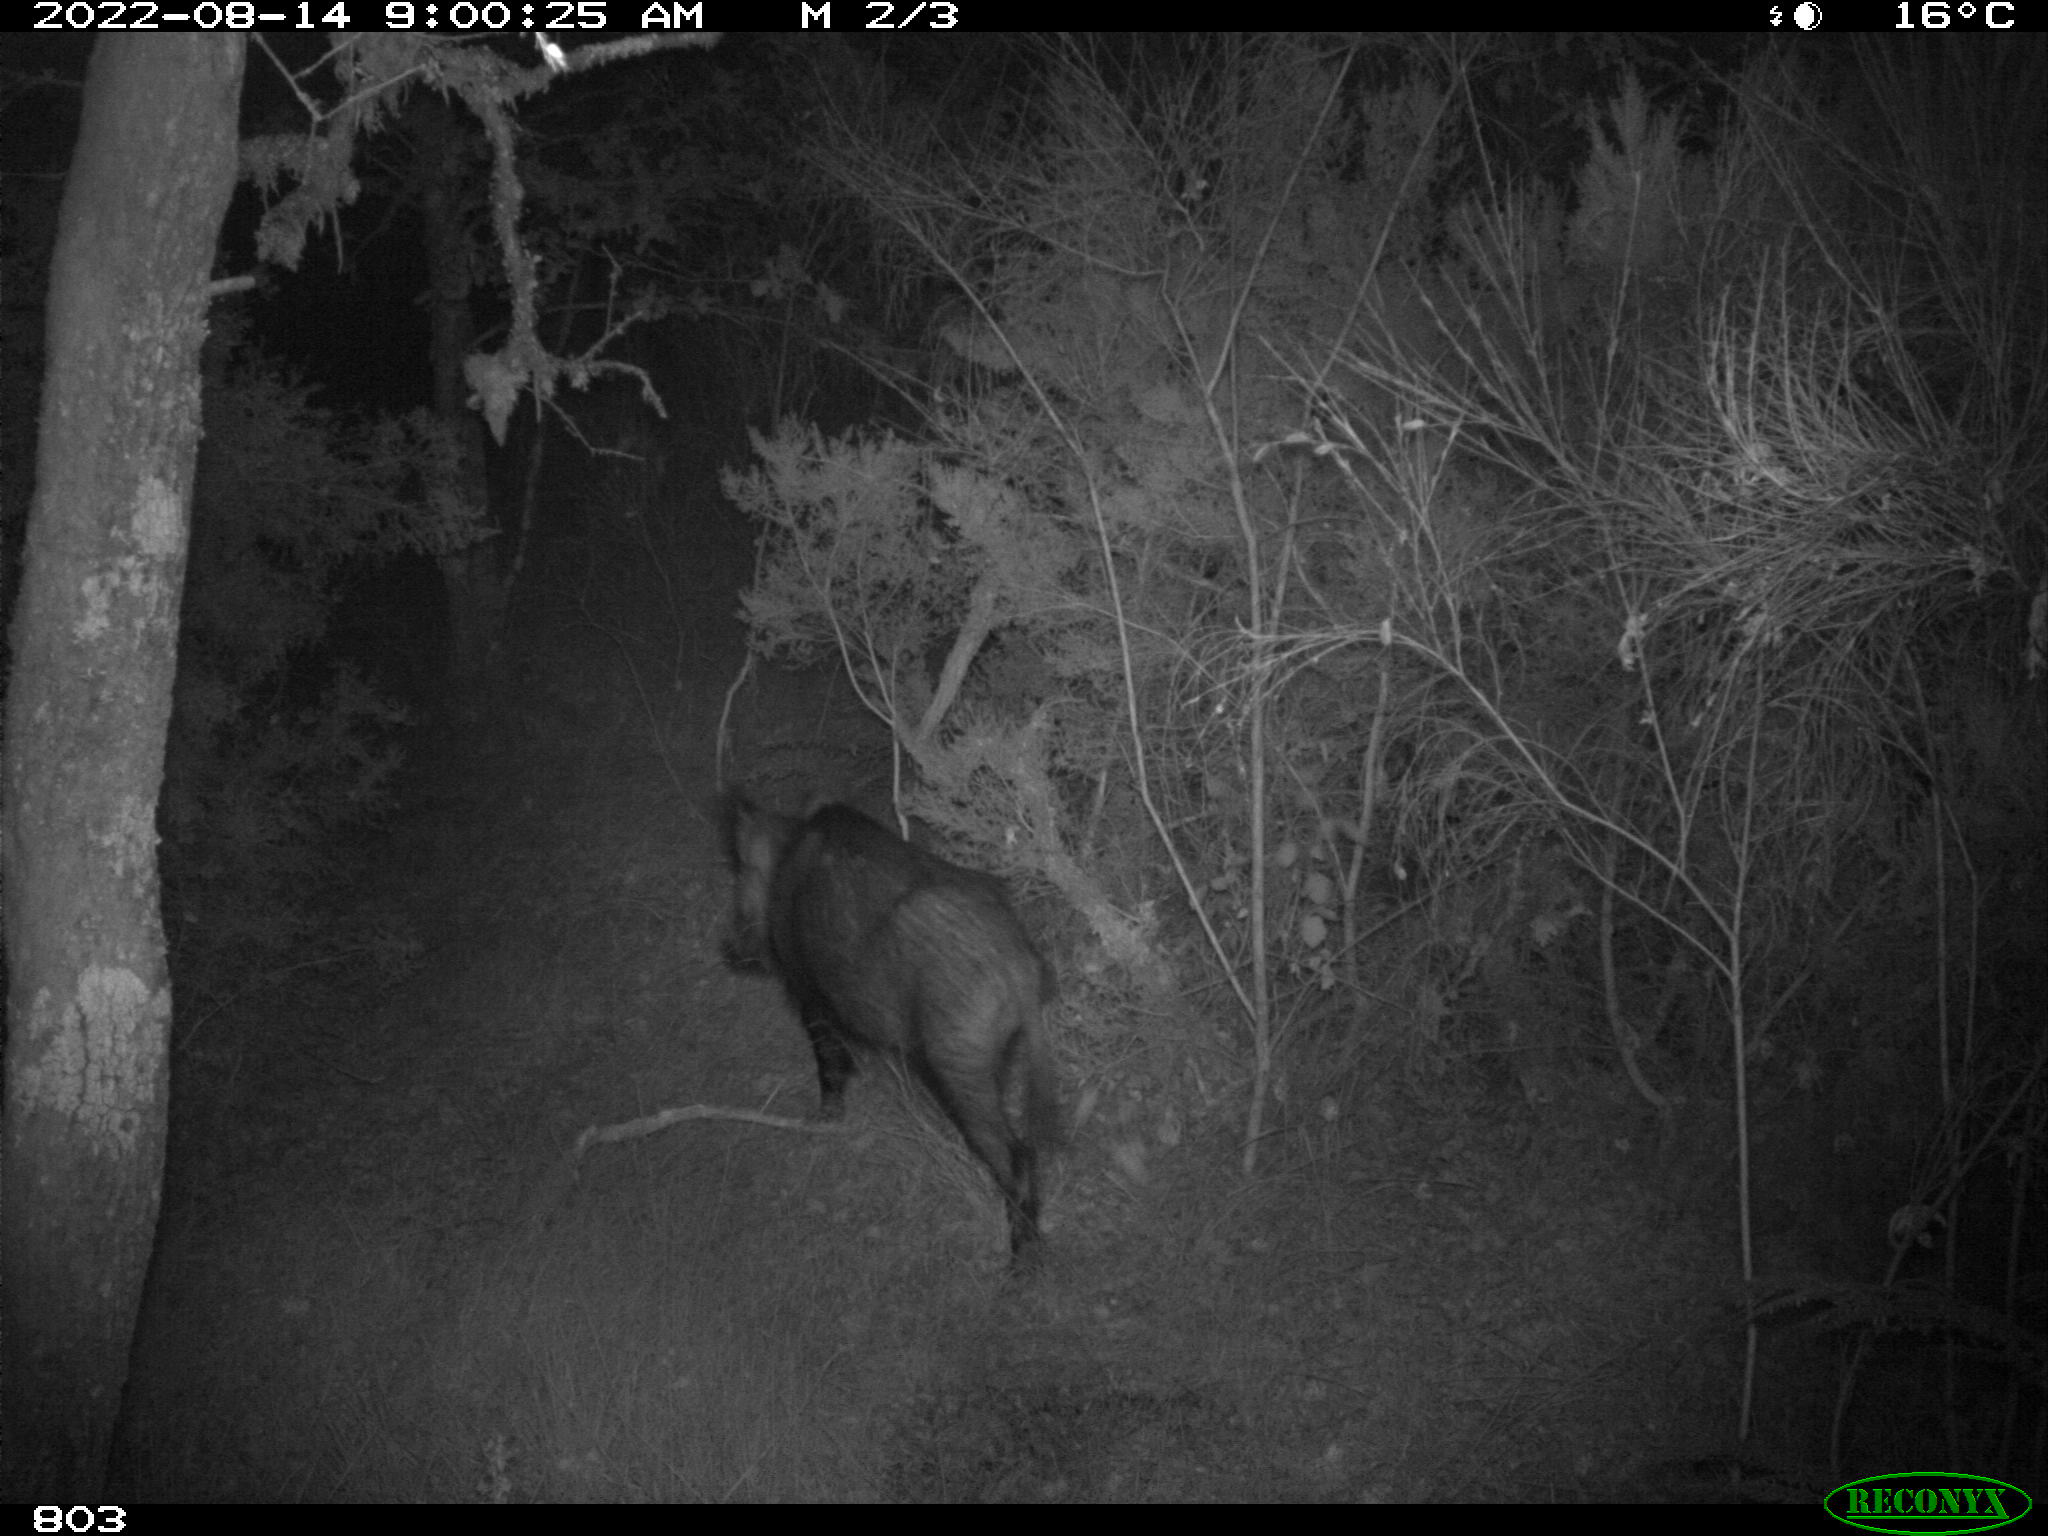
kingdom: Animalia
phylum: Chordata
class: Mammalia
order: Artiodactyla
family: Suidae
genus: Sus
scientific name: Sus scrofa
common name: Wild boar
